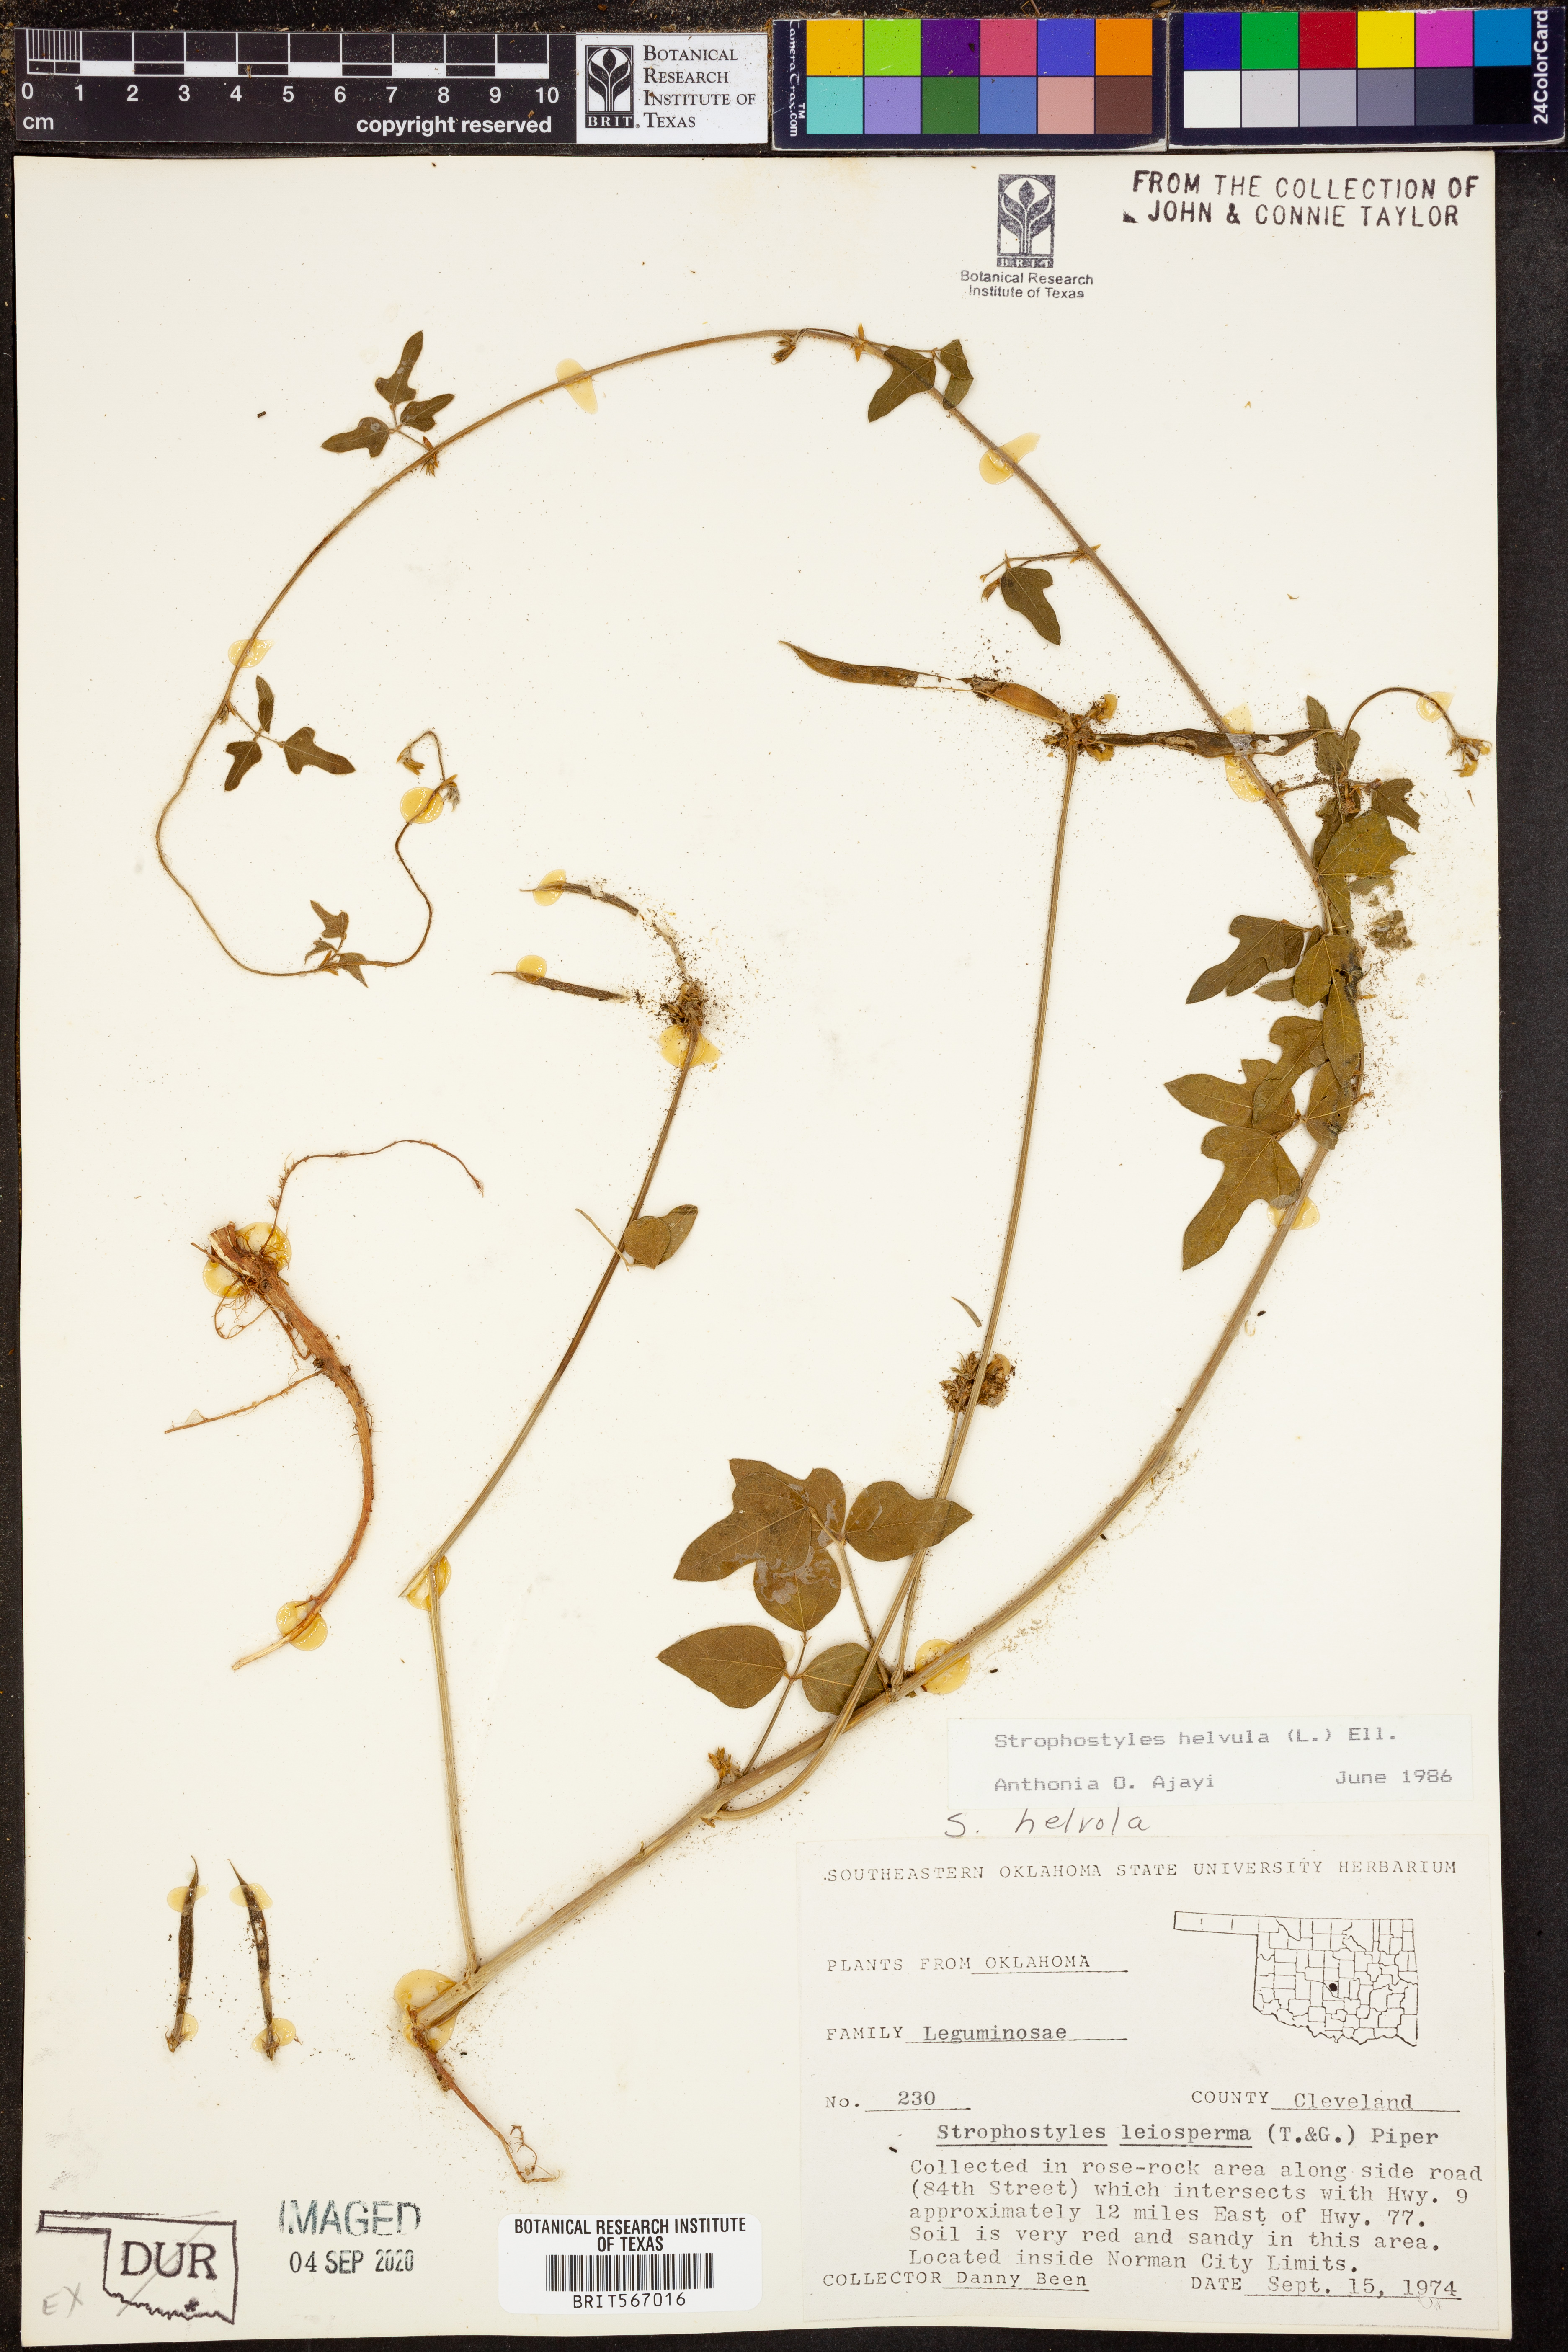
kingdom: Plantae
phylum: Tracheophyta
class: Magnoliopsida
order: Fabales
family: Fabaceae
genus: Strophostyles
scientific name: Strophostyles helvola
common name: Trailing wild bean
